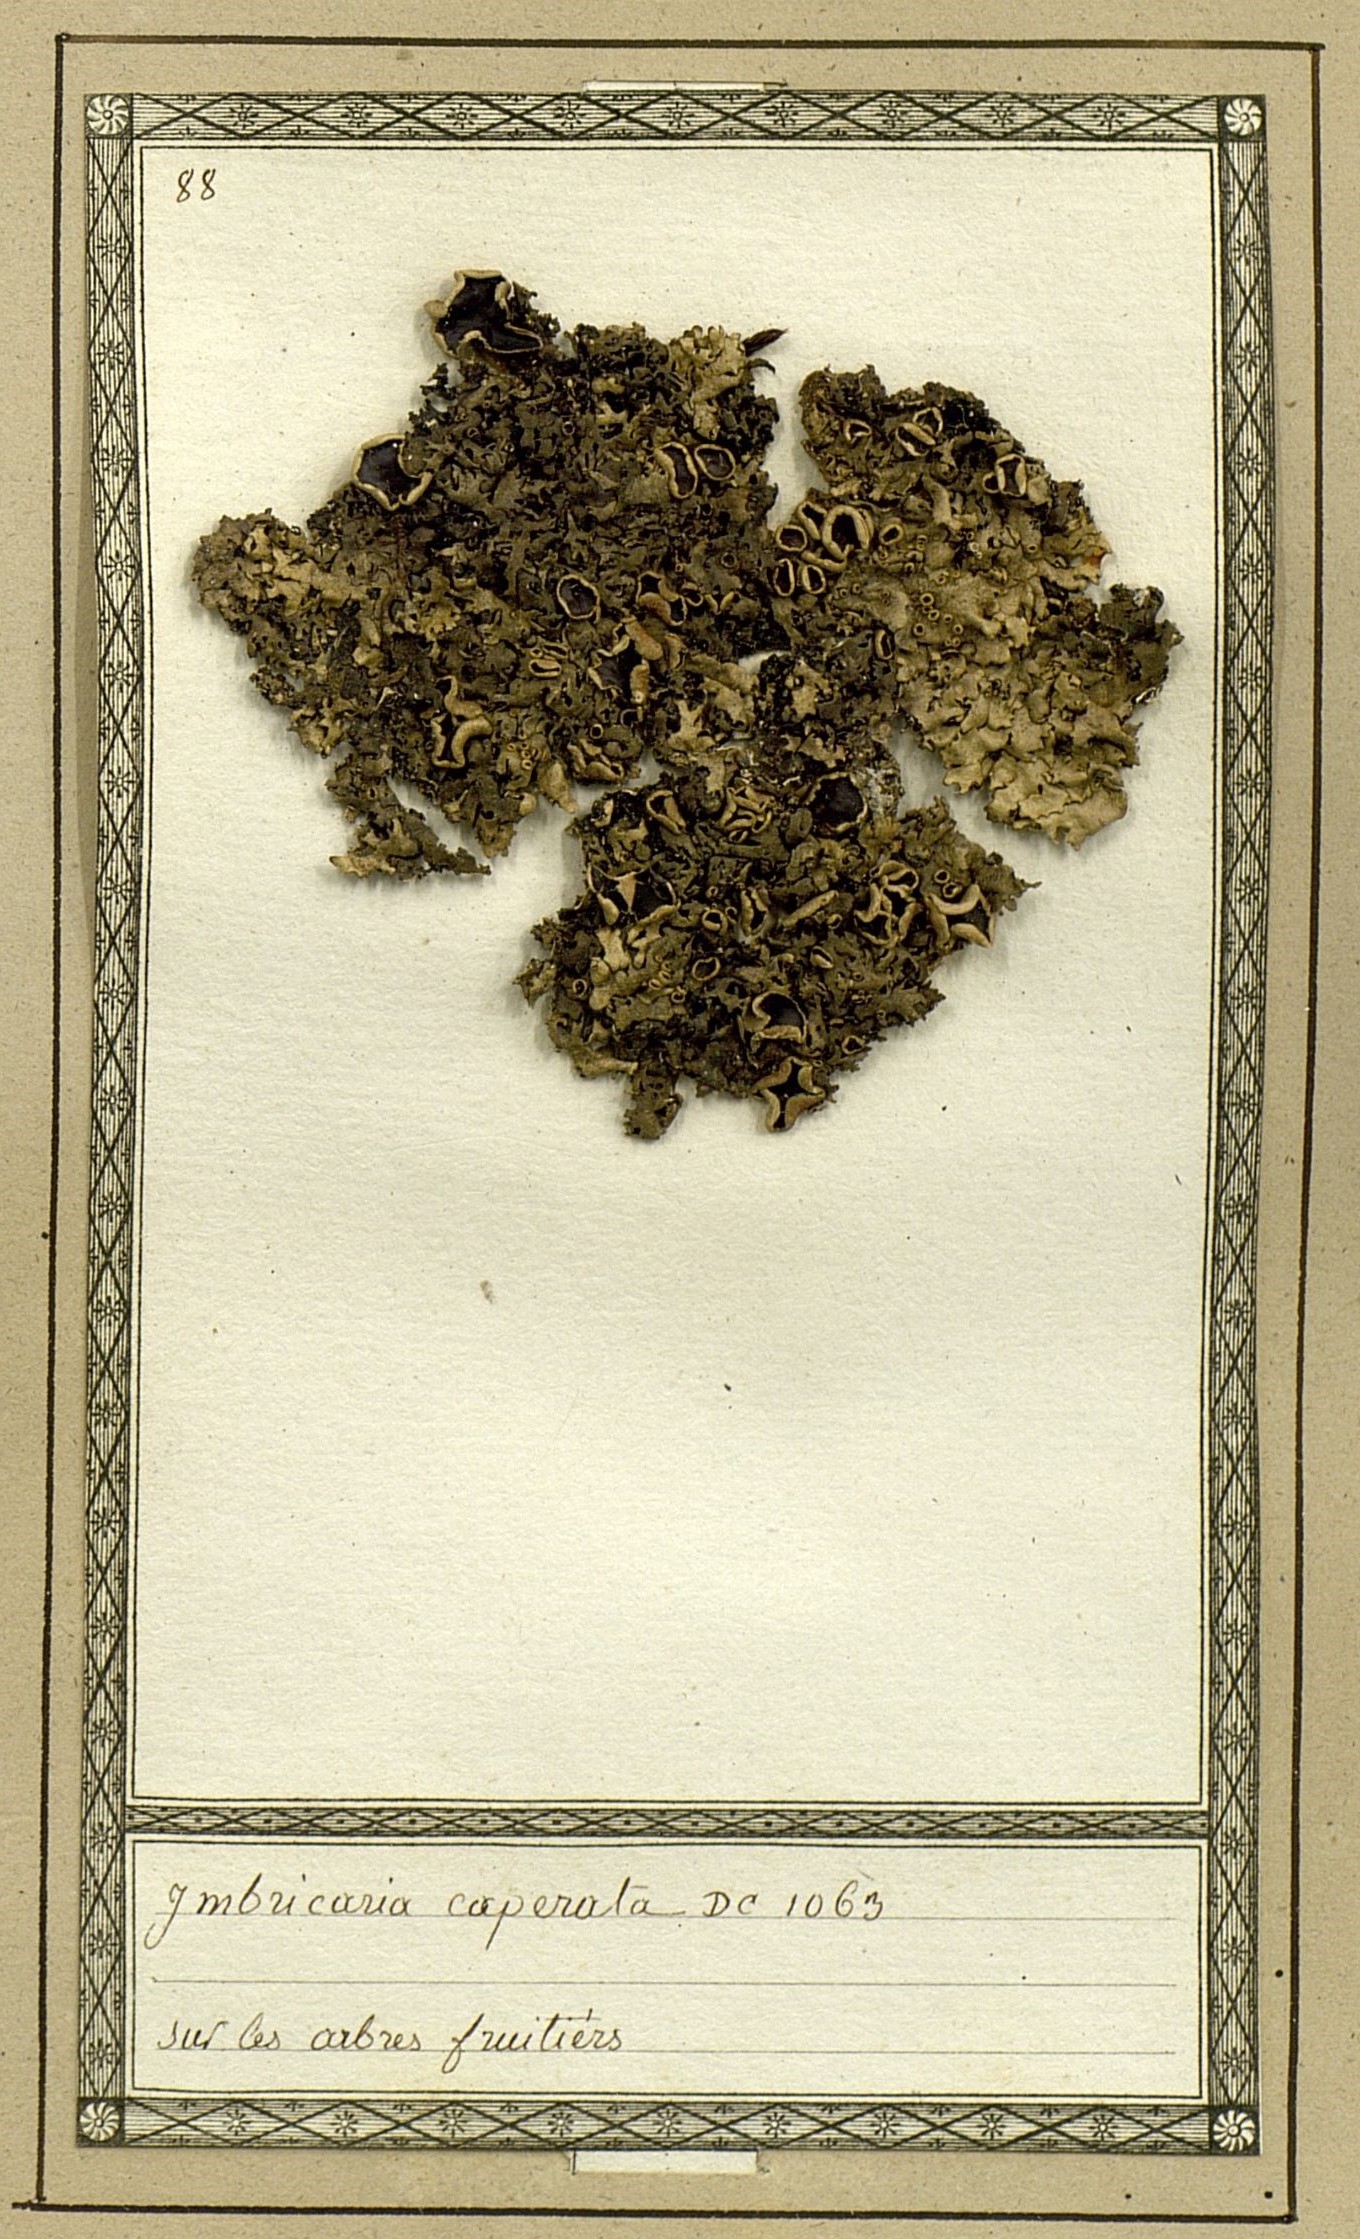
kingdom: Fungi
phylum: Ascomycota
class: Lecanoromycetes
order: Lecanorales
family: Parmeliaceae
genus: Flavoparmelia
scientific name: Flavoparmelia caperata
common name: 40-mile per hour lichen
